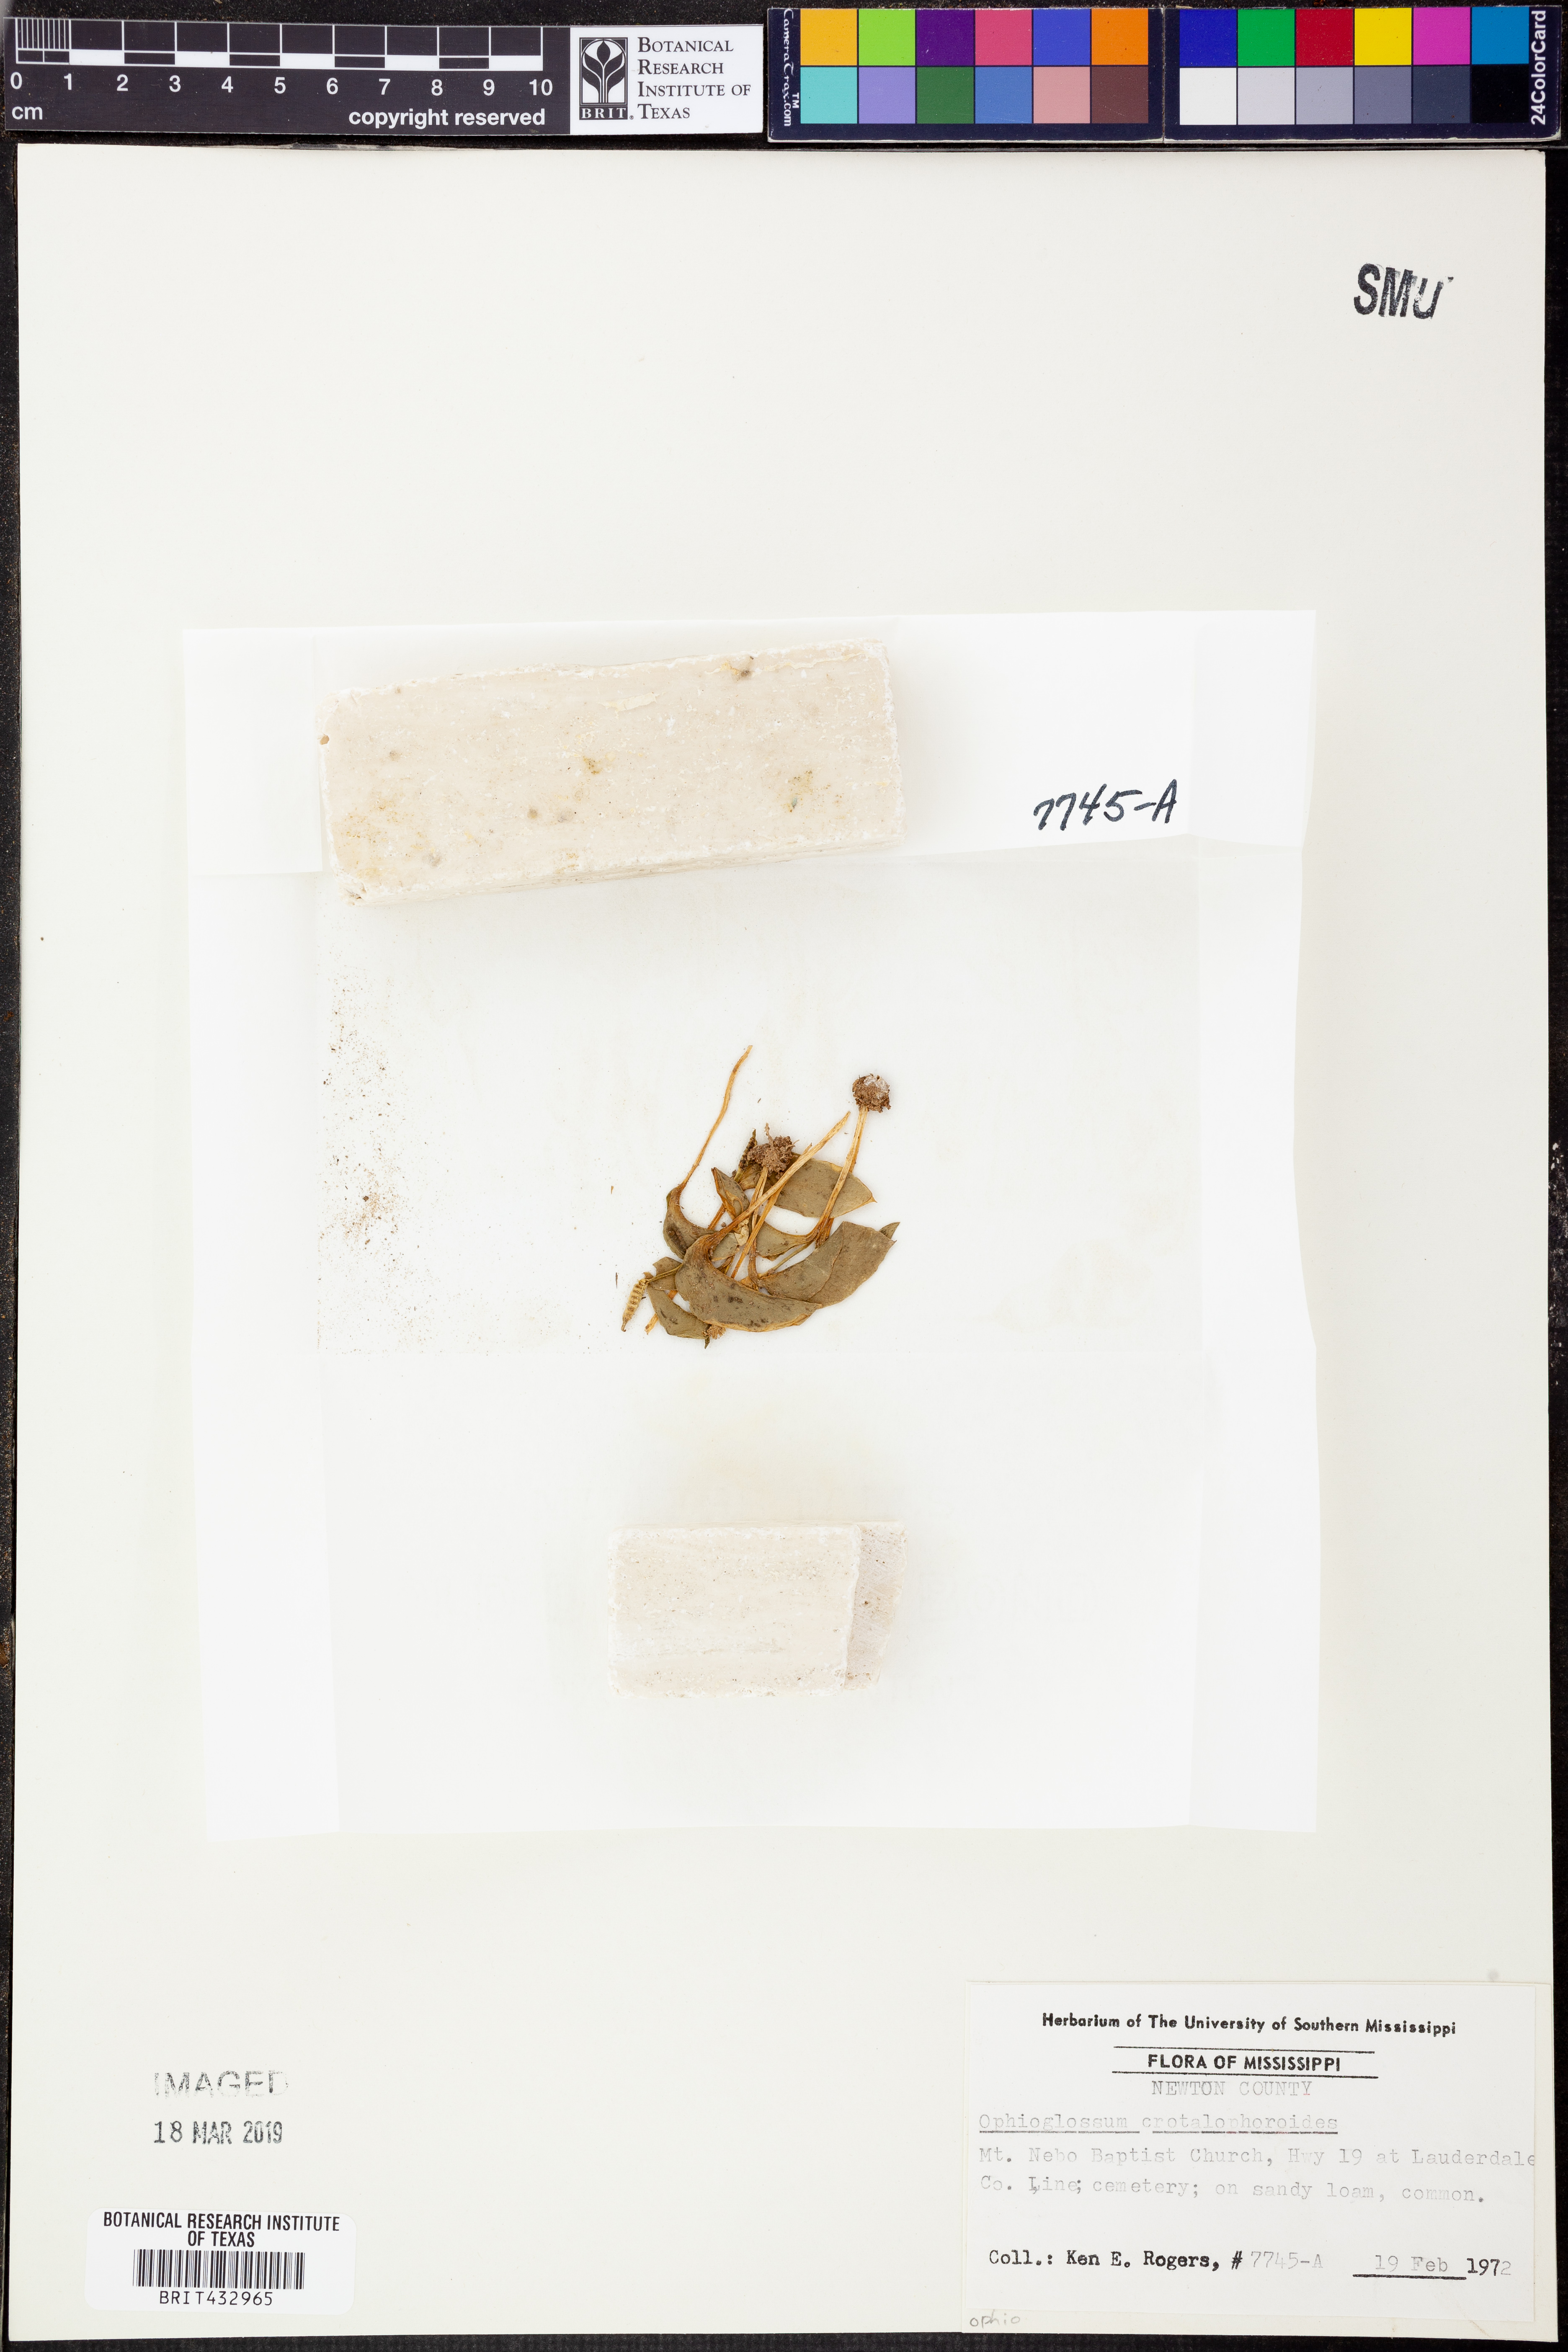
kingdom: Plantae
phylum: Tracheophyta
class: Polypodiopsida
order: Ophioglossales
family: Ophioglossaceae
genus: Ophioglossum
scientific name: Ophioglossum crotalophoroides
